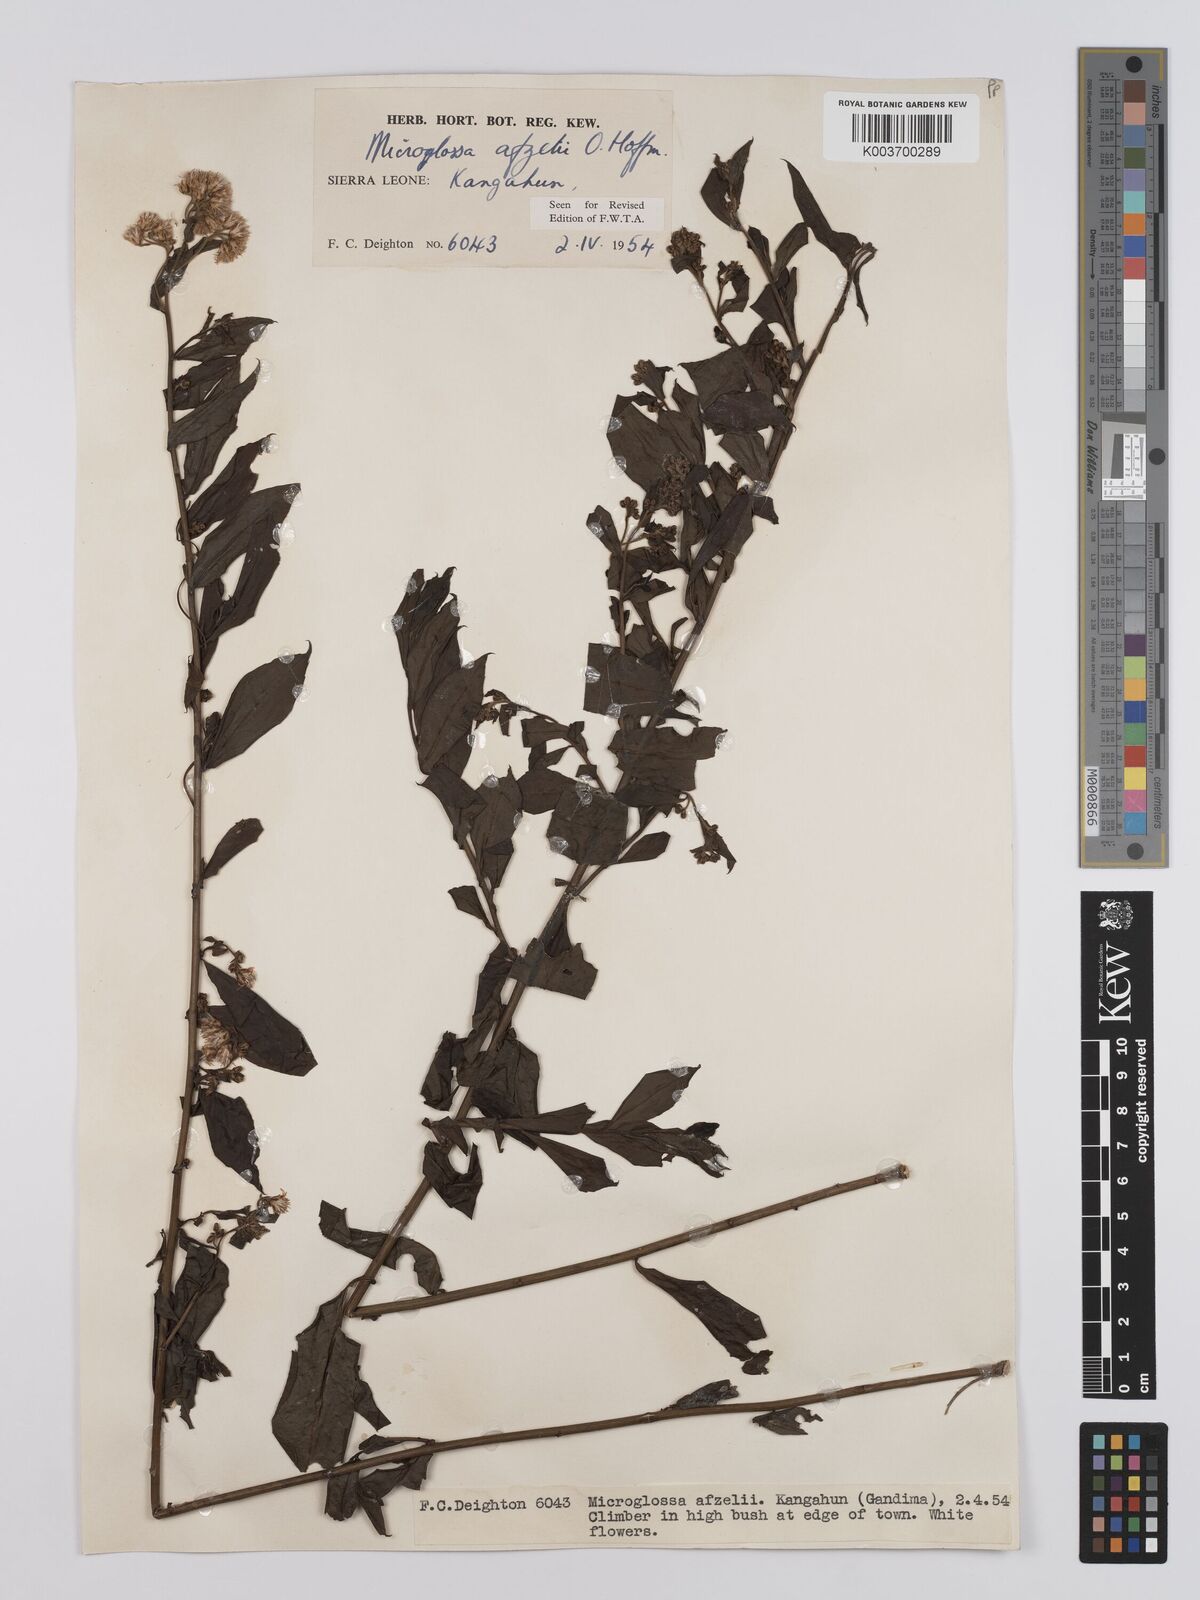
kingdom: Plantae
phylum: Tracheophyta
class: Magnoliopsida
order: Asterales
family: Asteraceae
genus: Microglossa
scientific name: Microglossa afzelii
